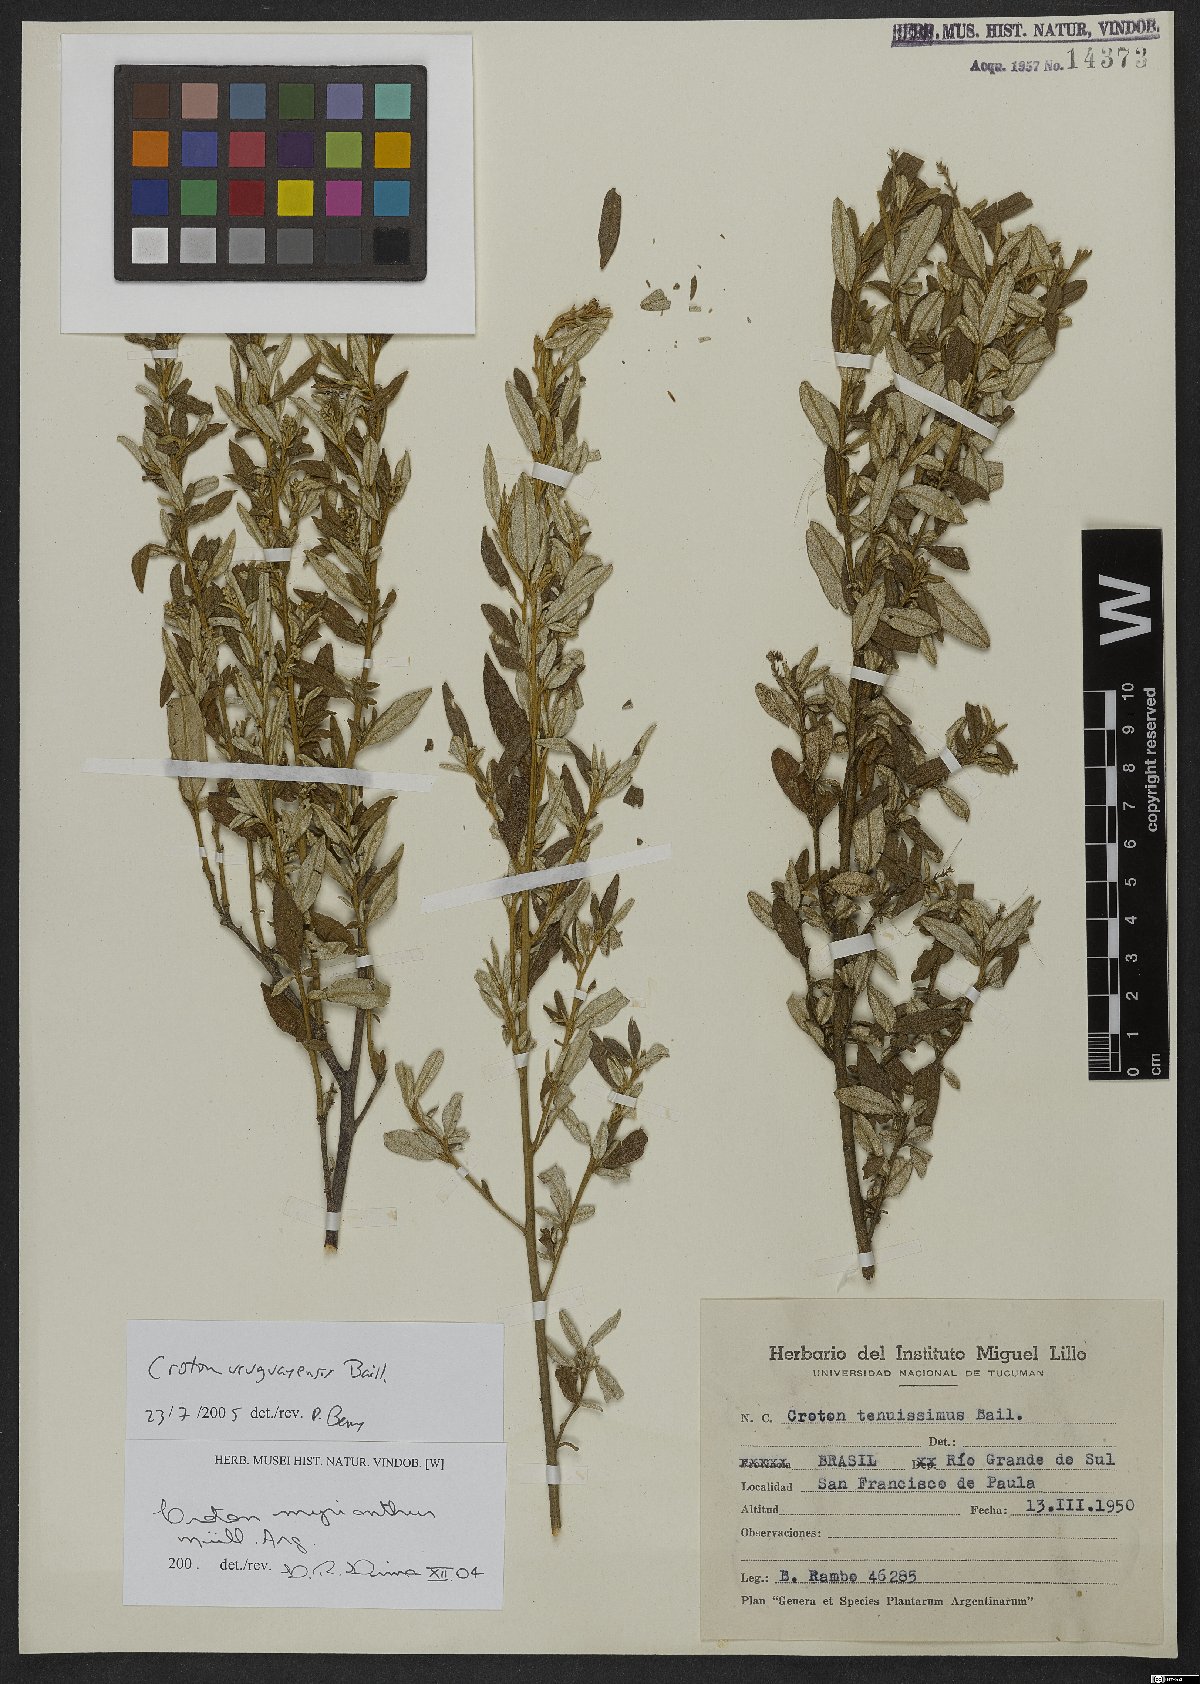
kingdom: Plantae
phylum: Tracheophyta
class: Magnoliopsida
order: Malpighiales
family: Euphorbiaceae
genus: Croton
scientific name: Croton uruguayensis
